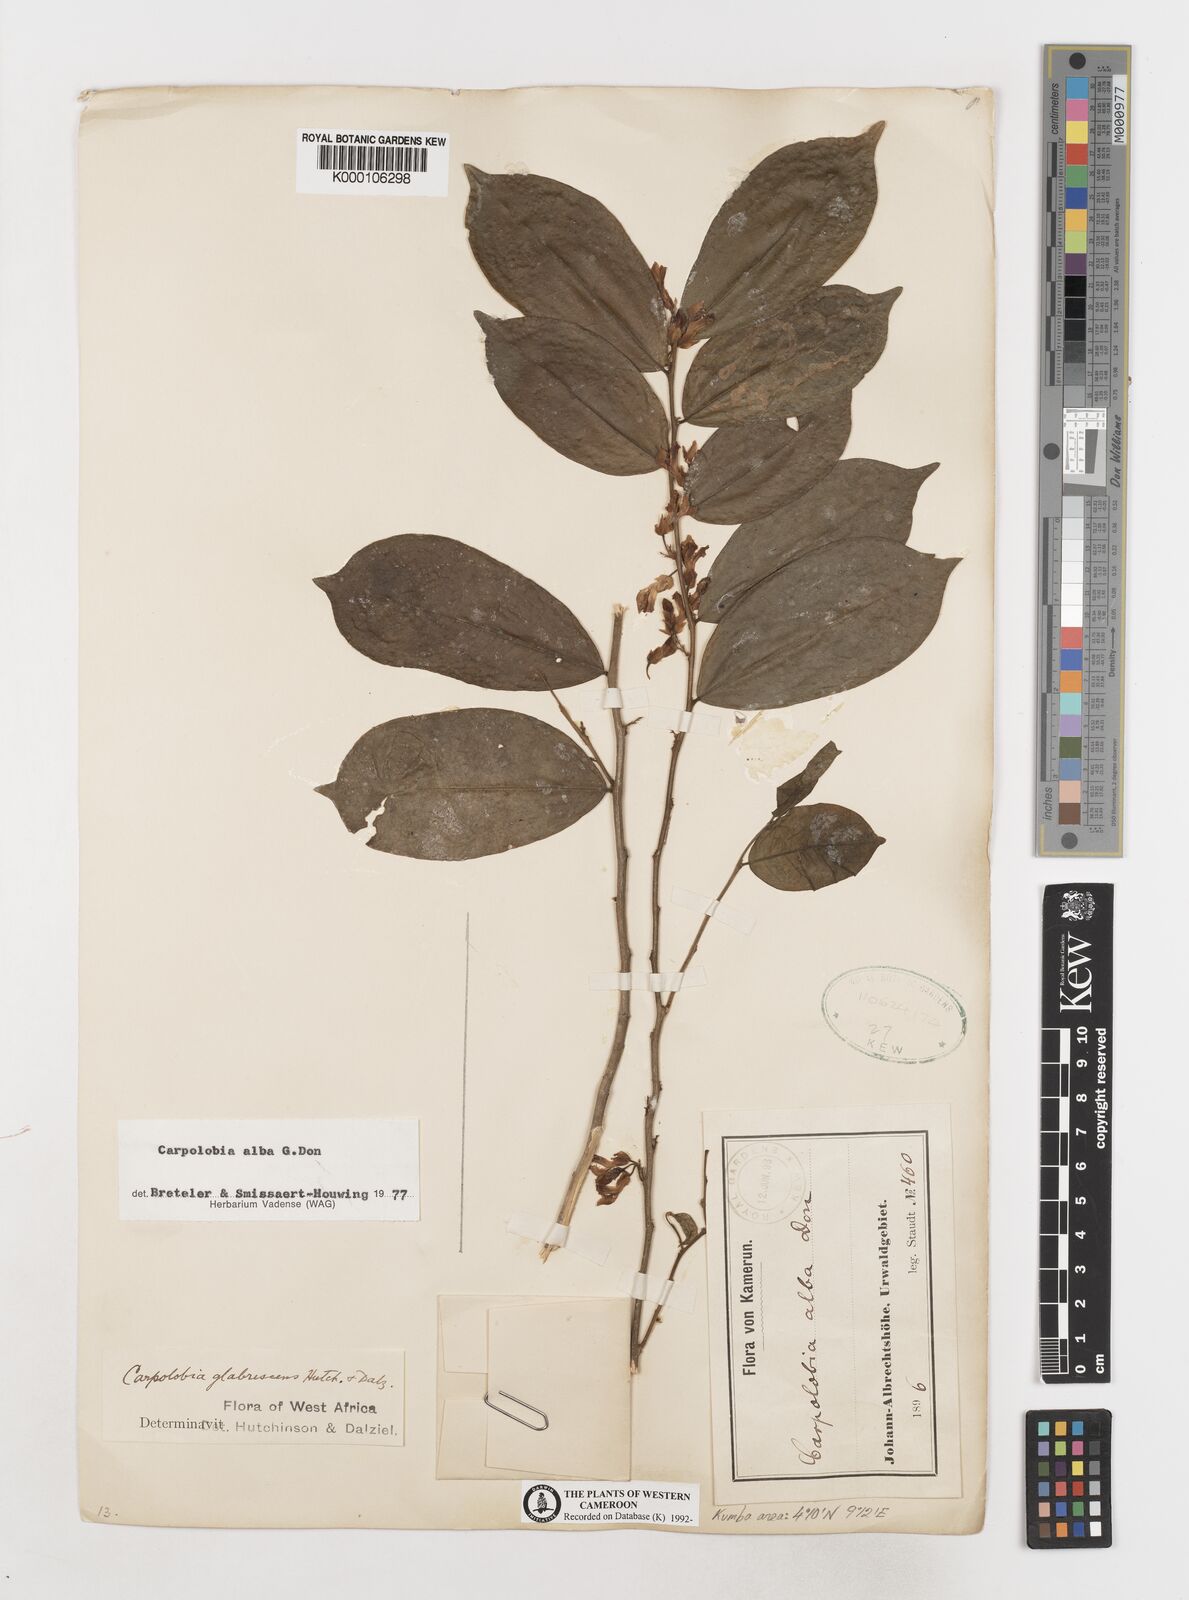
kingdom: Plantae
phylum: Tracheophyta
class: Magnoliopsida
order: Fabales
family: Polygalaceae
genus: Carpolobia
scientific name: Carpolobia alba
